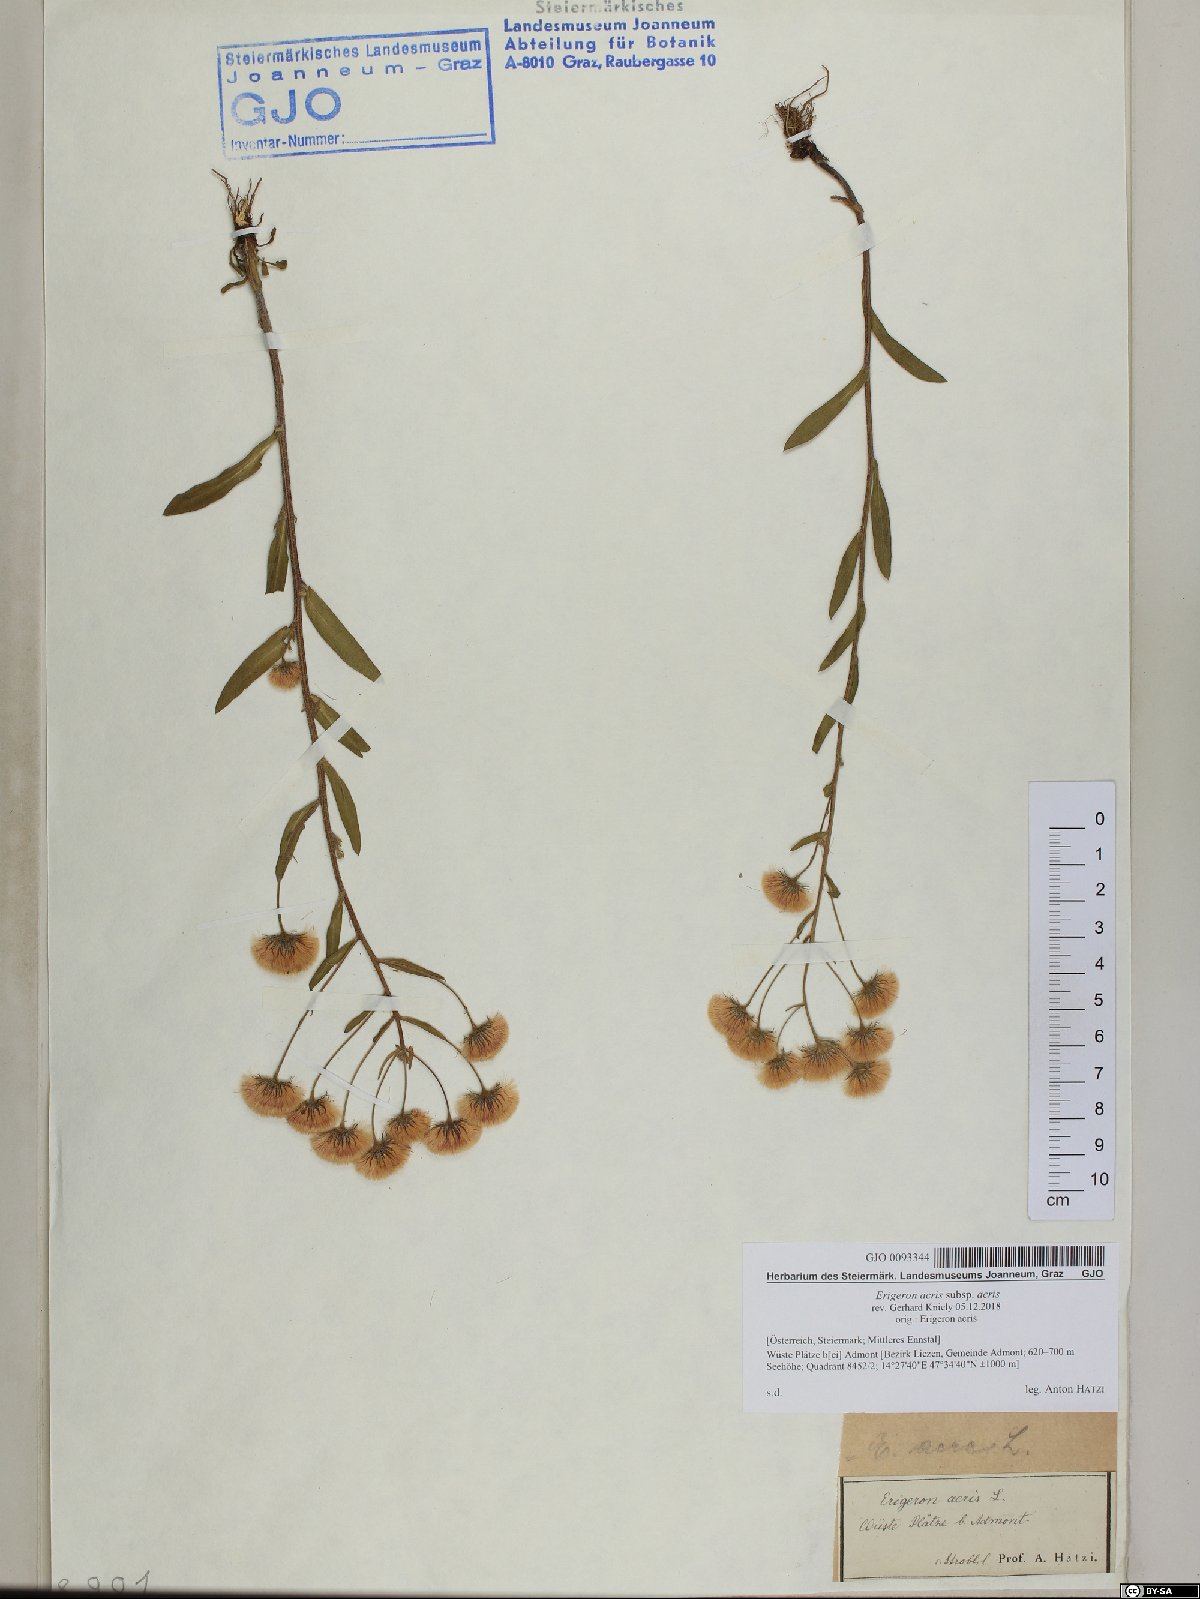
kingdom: Plantae
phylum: Tracheophyta
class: Magnoliopsida
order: Asterales
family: Asteraceae
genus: Erigeron
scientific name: Erigeron acris
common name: Blue fleabane
